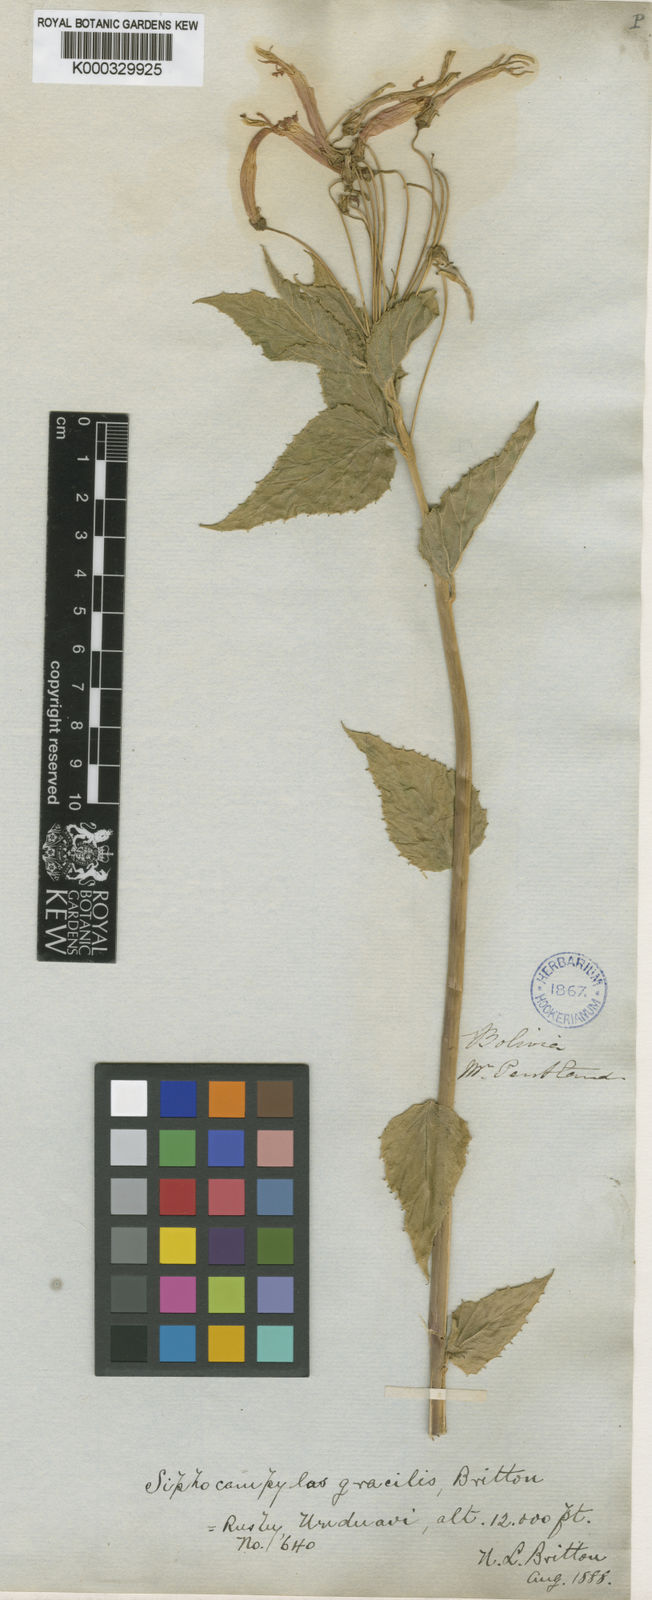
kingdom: Plantae
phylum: Tracheophyta
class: Magnoliopsida
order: Asterales
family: Campanulaceae
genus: Siphocampylus
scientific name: Siphocampylus corymbifer
